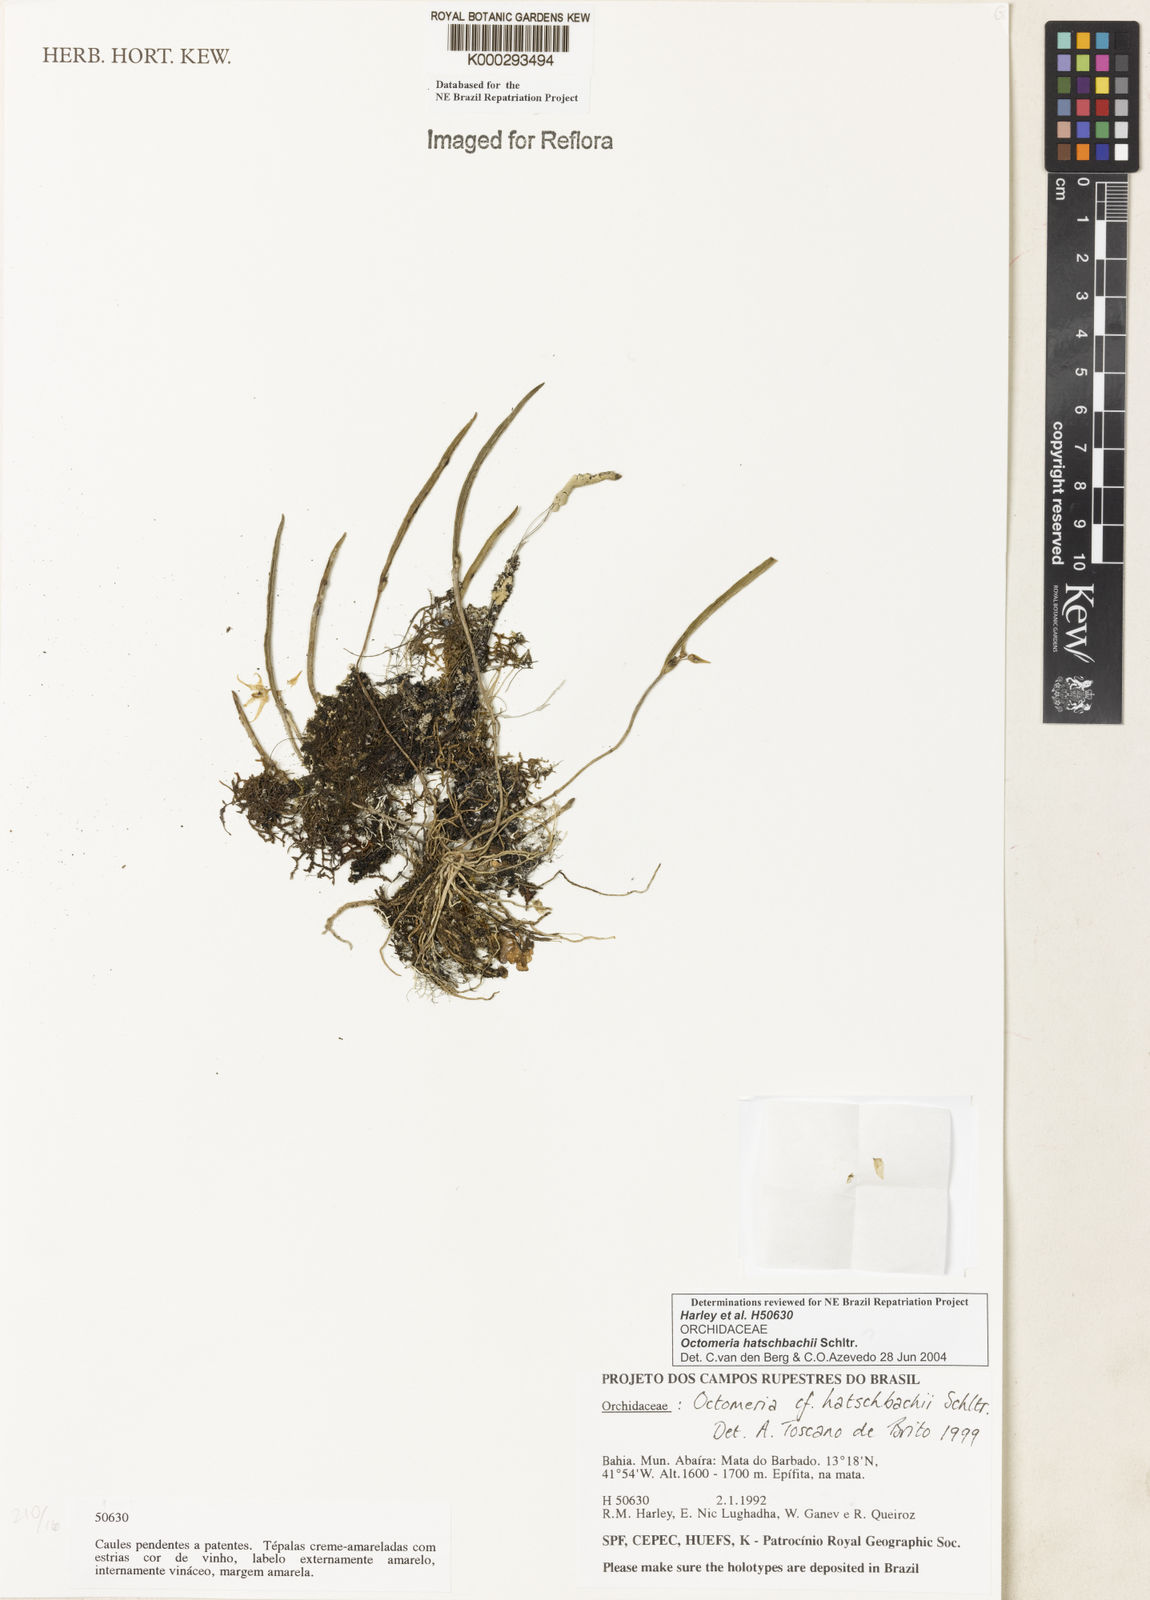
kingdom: Plantae
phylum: Tracheophyta
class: Liliopsida
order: Asparagales
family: Orchidaceae
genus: Octomeria
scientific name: Octomeria hatschbachii
